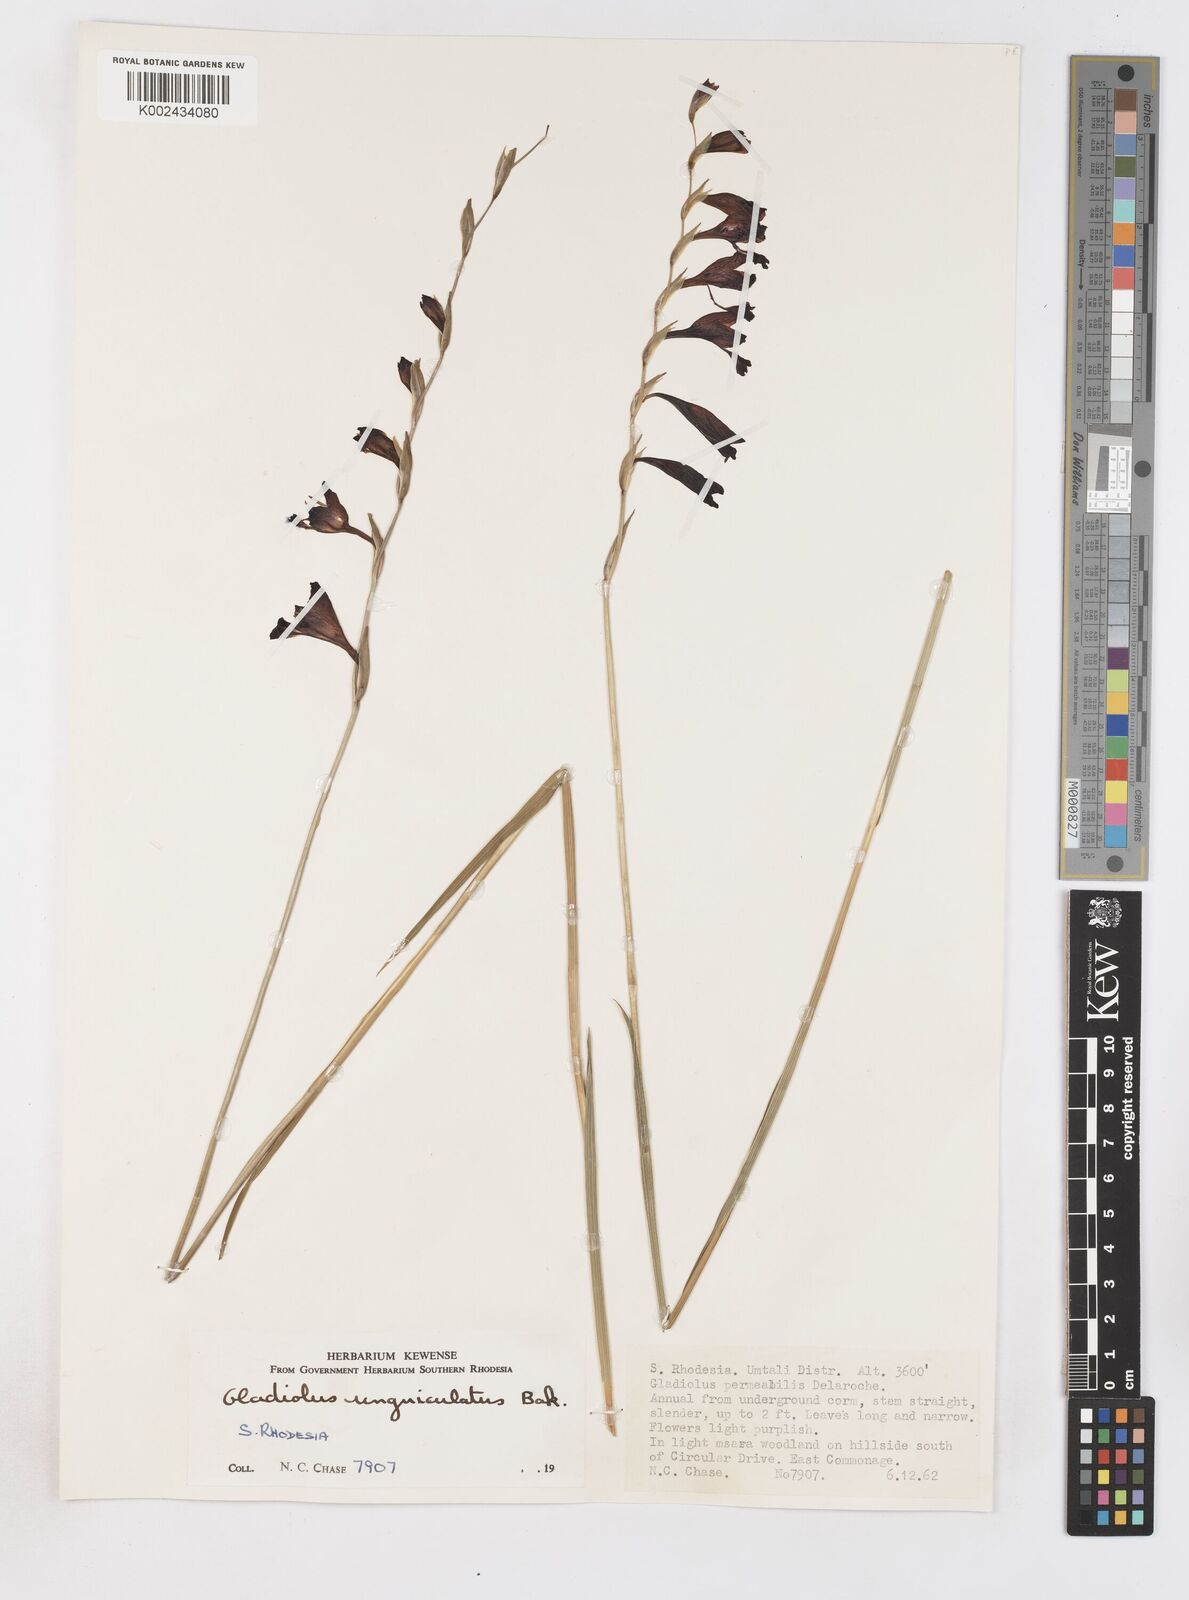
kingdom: Plantae
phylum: Tracheophyta
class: Liliopsida
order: Asparagales
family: Iridaceae
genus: Gladiolus
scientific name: Gladiolus atropurpureus
